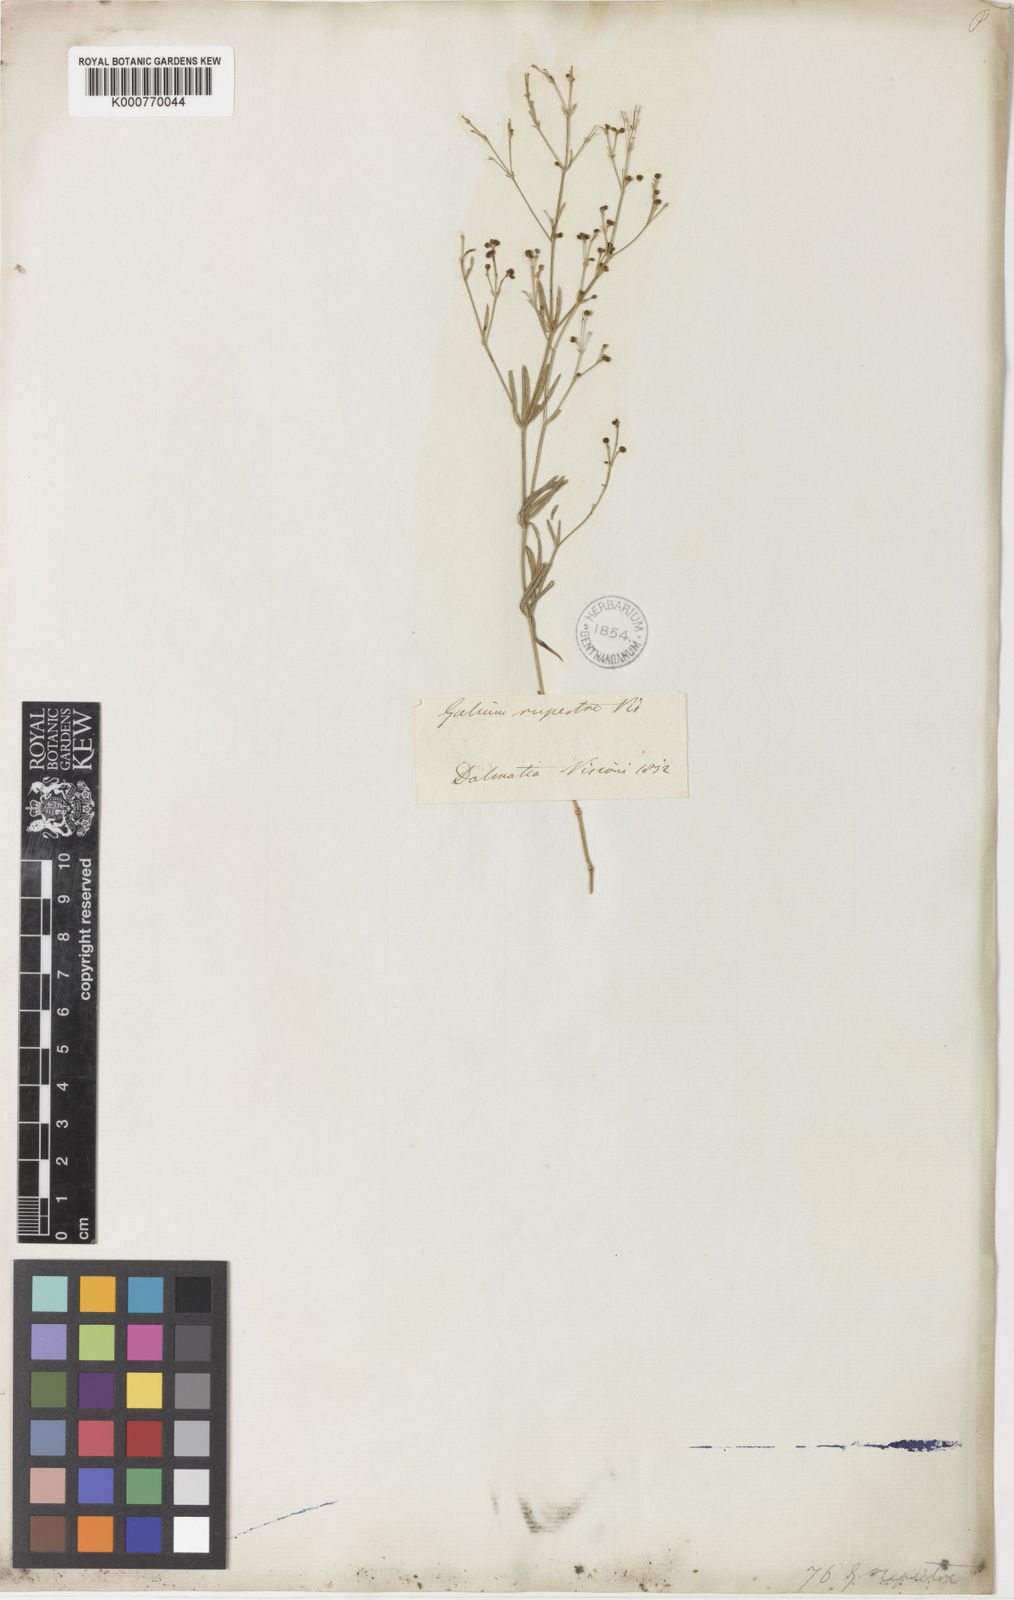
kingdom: Plantae
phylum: Tracheophyta
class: Magnoliopsida
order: Gentianales
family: Rubiaceae
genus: Hexaphylla
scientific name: Hexaphylla rupestris
